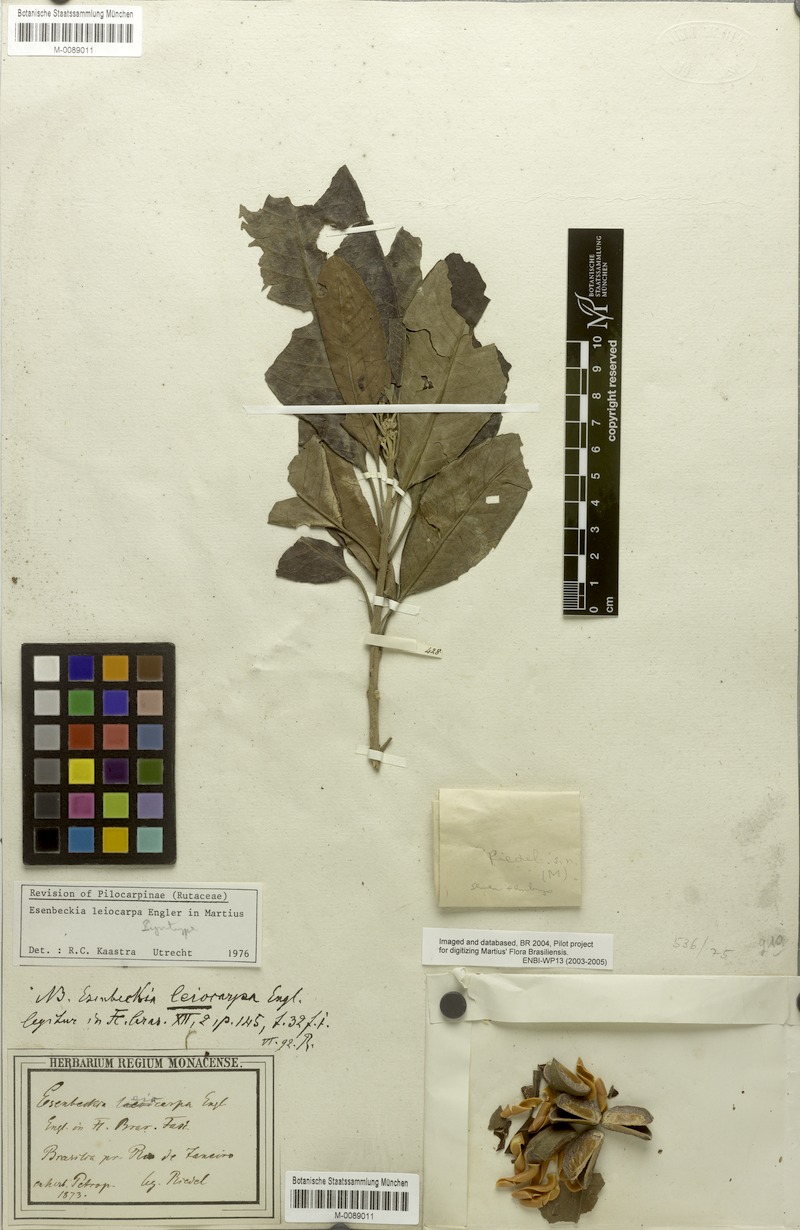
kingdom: Plantae
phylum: Tracheophyta
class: Magnoliopsida
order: Sapindales
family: Rutaceae
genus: Esenbeckia
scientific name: Esenbeckia leiocarpa
